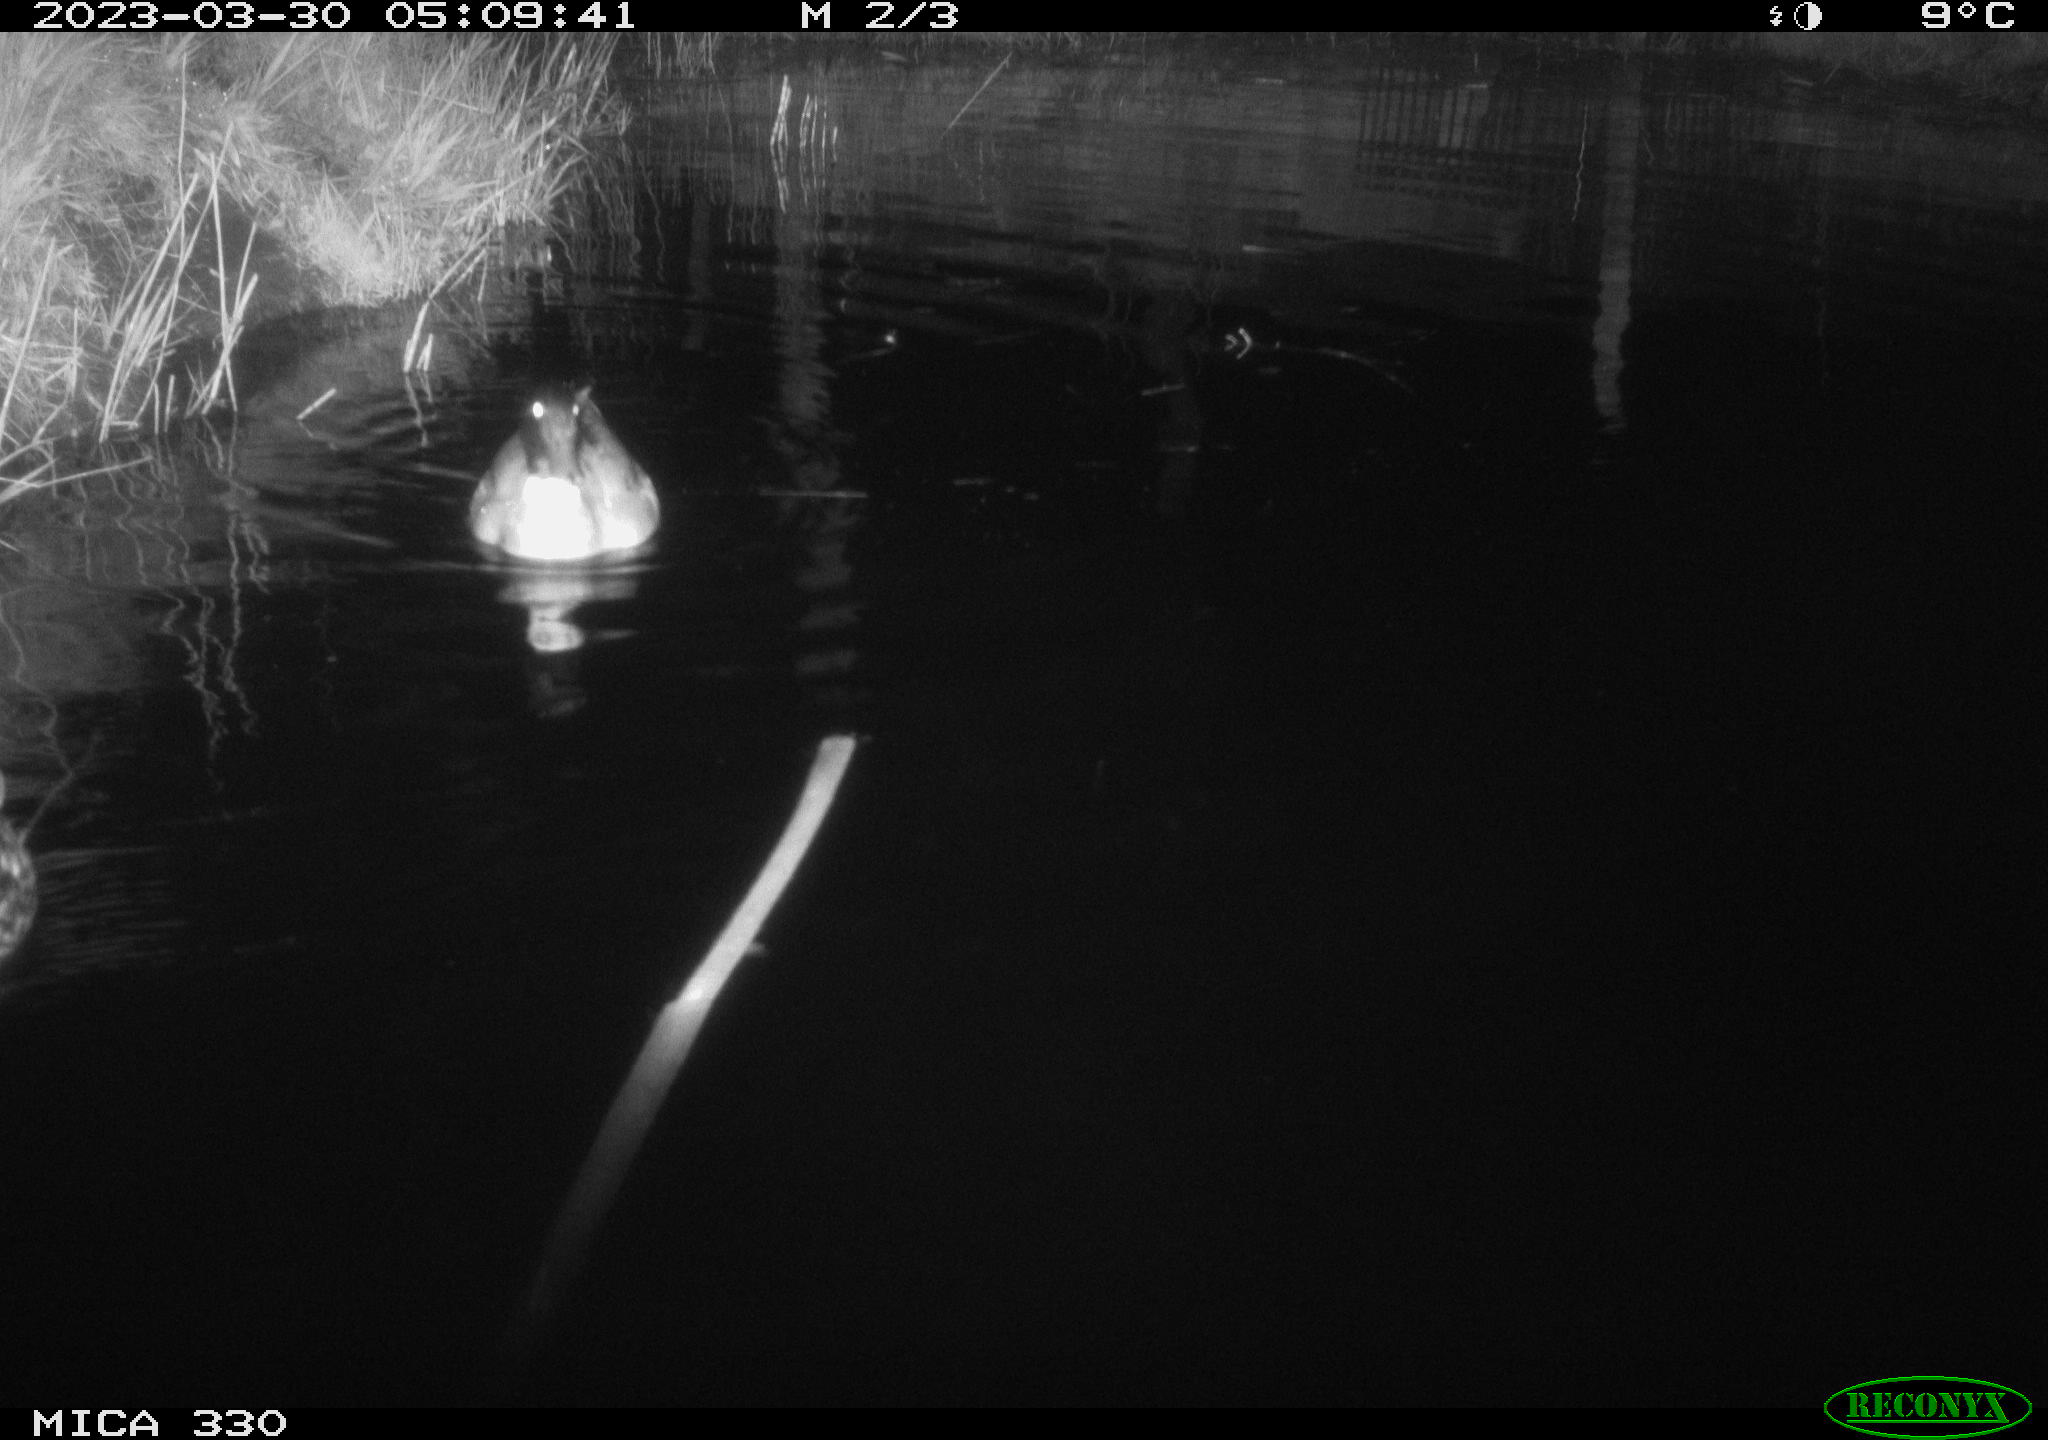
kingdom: Animalia
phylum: Chordata
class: Aves
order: Anseriformes
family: Anatidae
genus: Anas
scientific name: Anas
